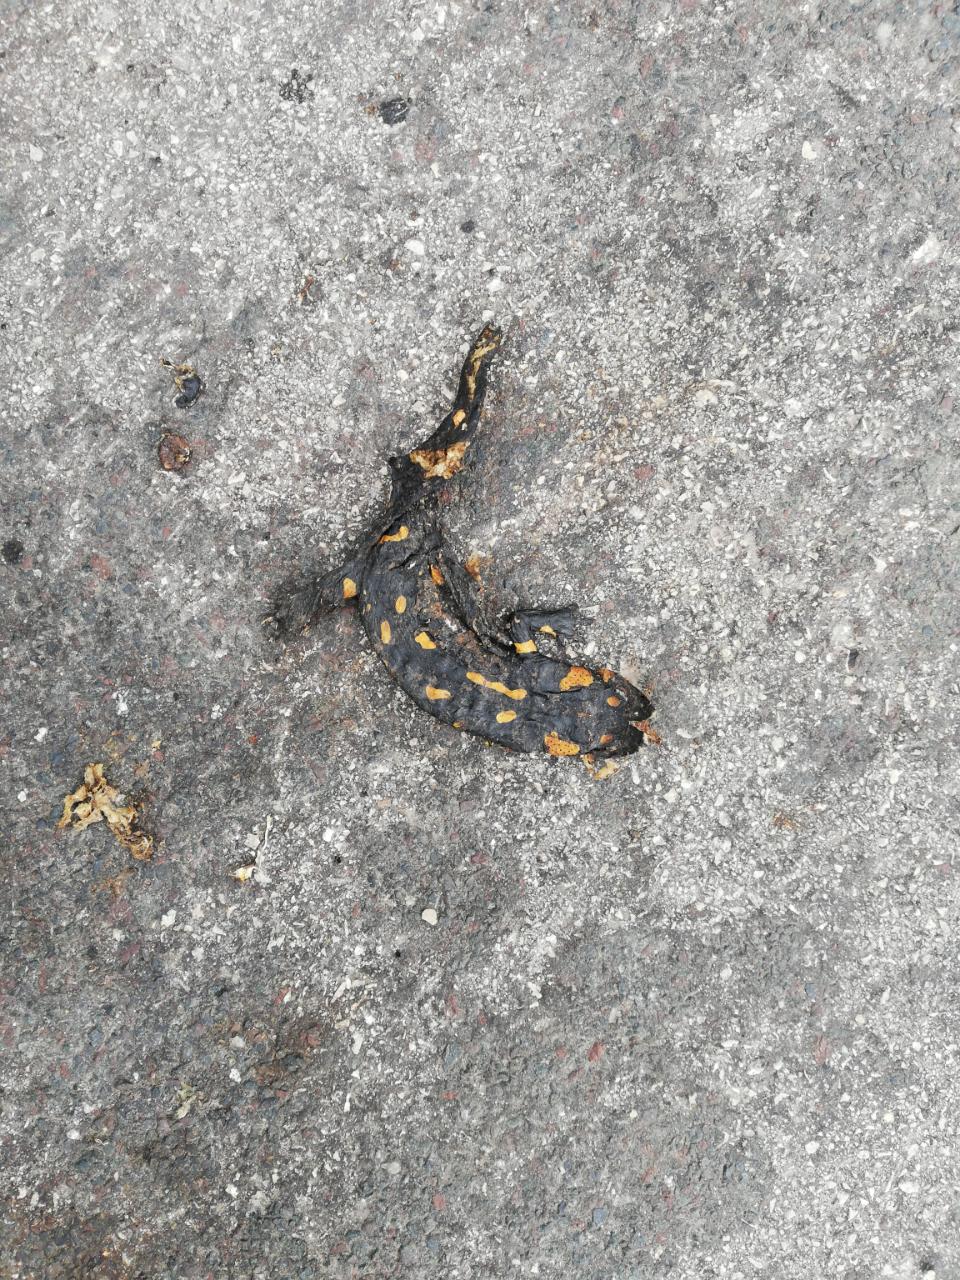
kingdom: Animalia
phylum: Chordata
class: Amphibia
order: Caudata
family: Salamandridae
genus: Salamandra
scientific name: Salamandra salamandra
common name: Fire salamander
